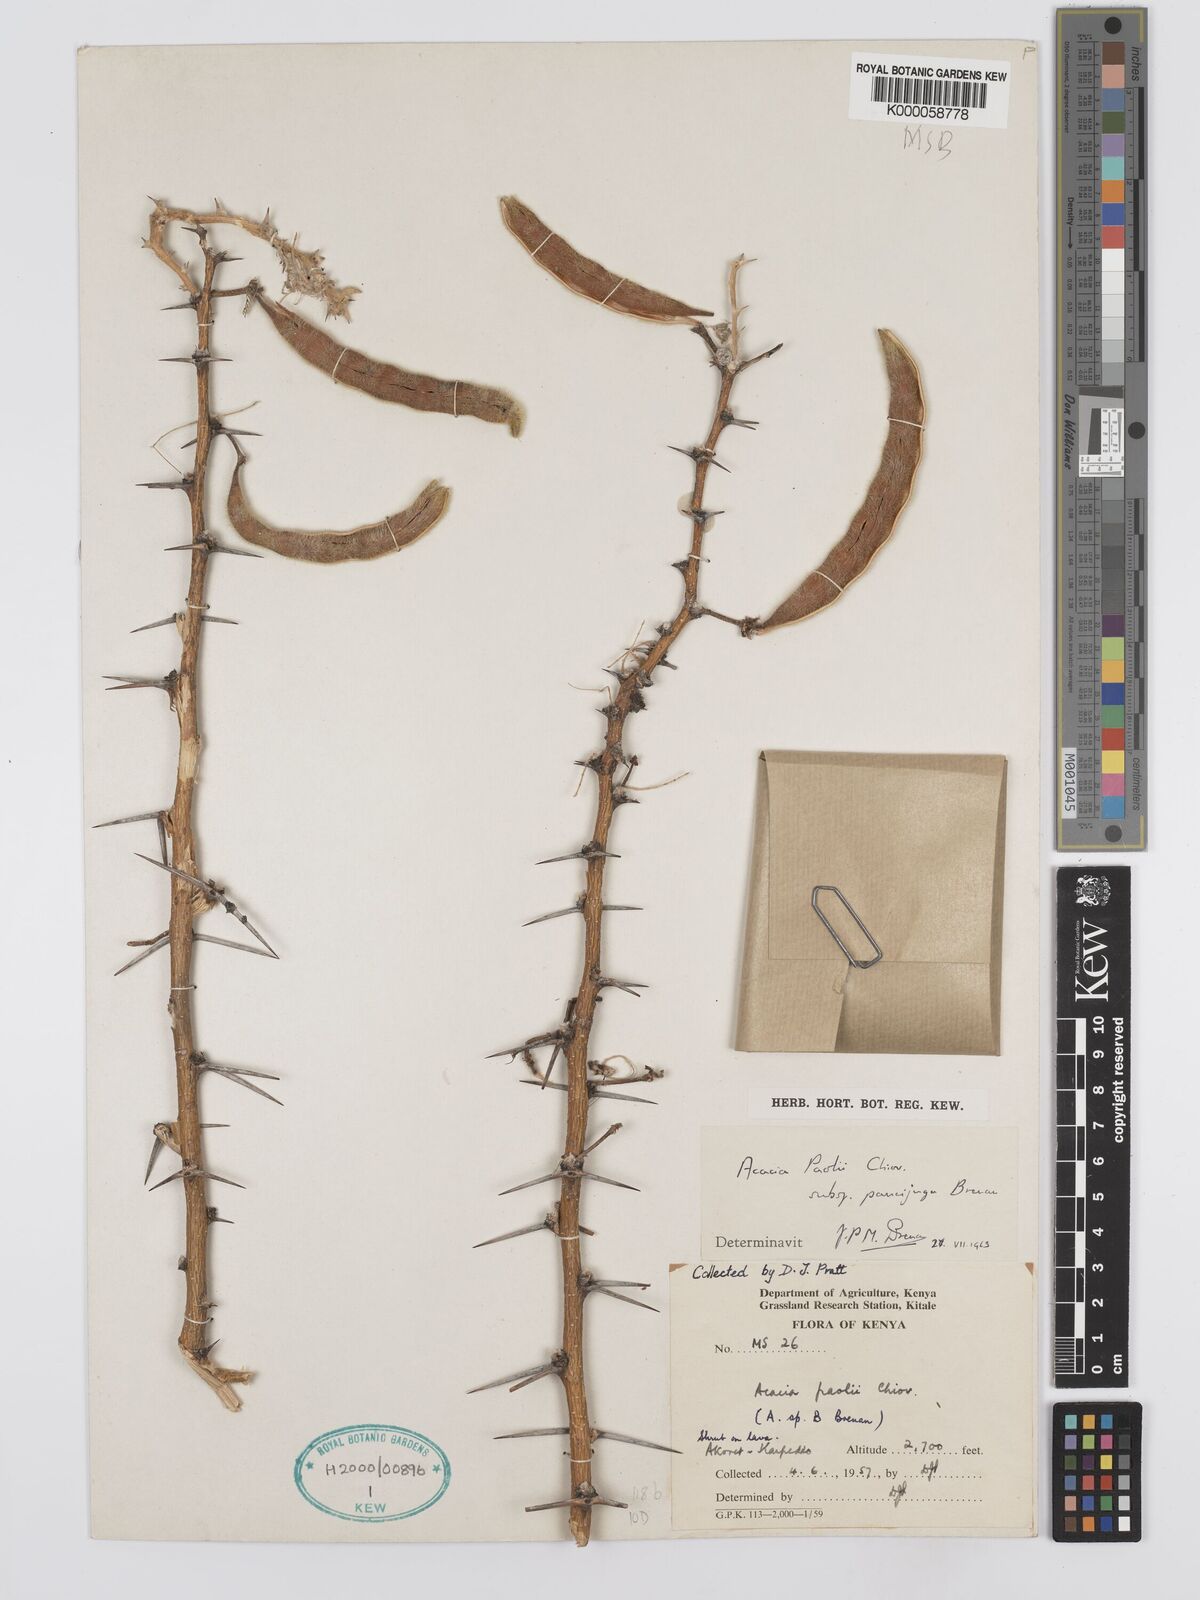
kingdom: Plantae
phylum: Tracheophyta
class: Magnoliopsida
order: Fabales
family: Fabaceae
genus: Vachellia
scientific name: Vachellia paolii
